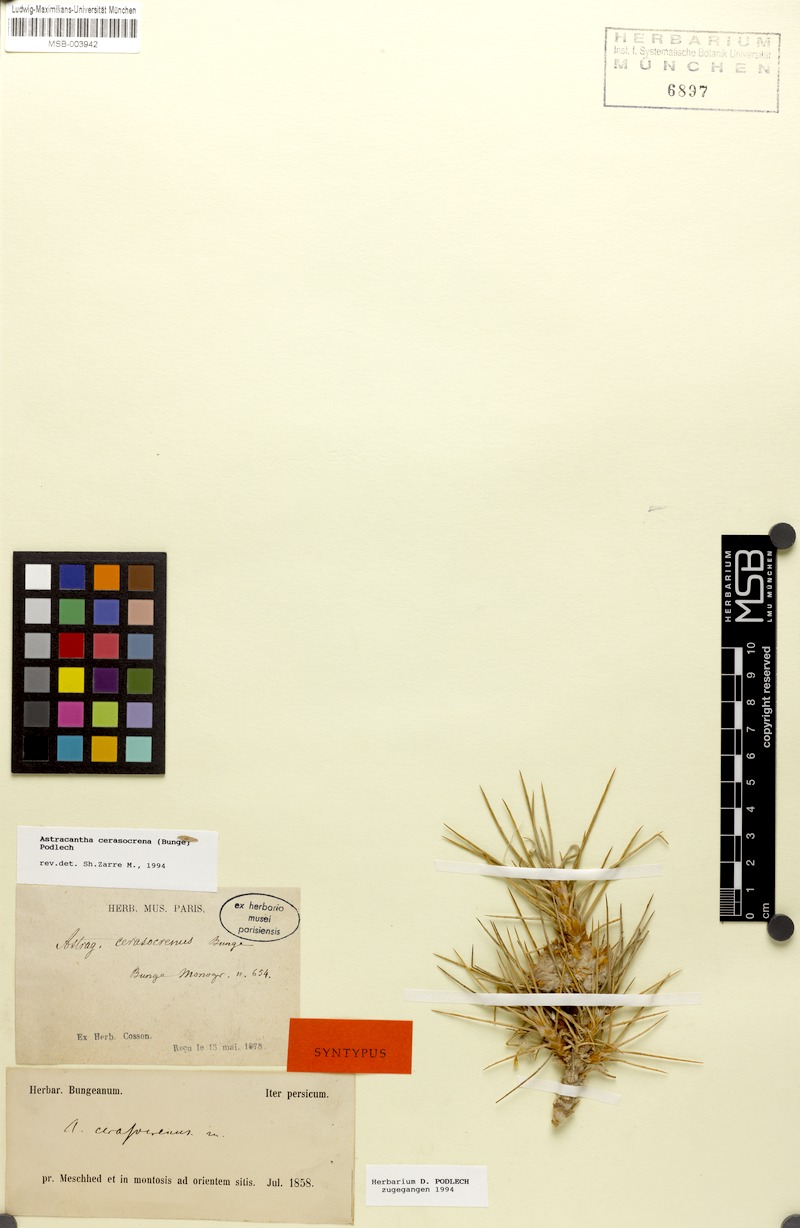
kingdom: Plantae
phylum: Tracheophyta
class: Magnoliopsida
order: Fabales
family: Fabaceae
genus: Astragalus
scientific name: Astragalus cerasocrenus
